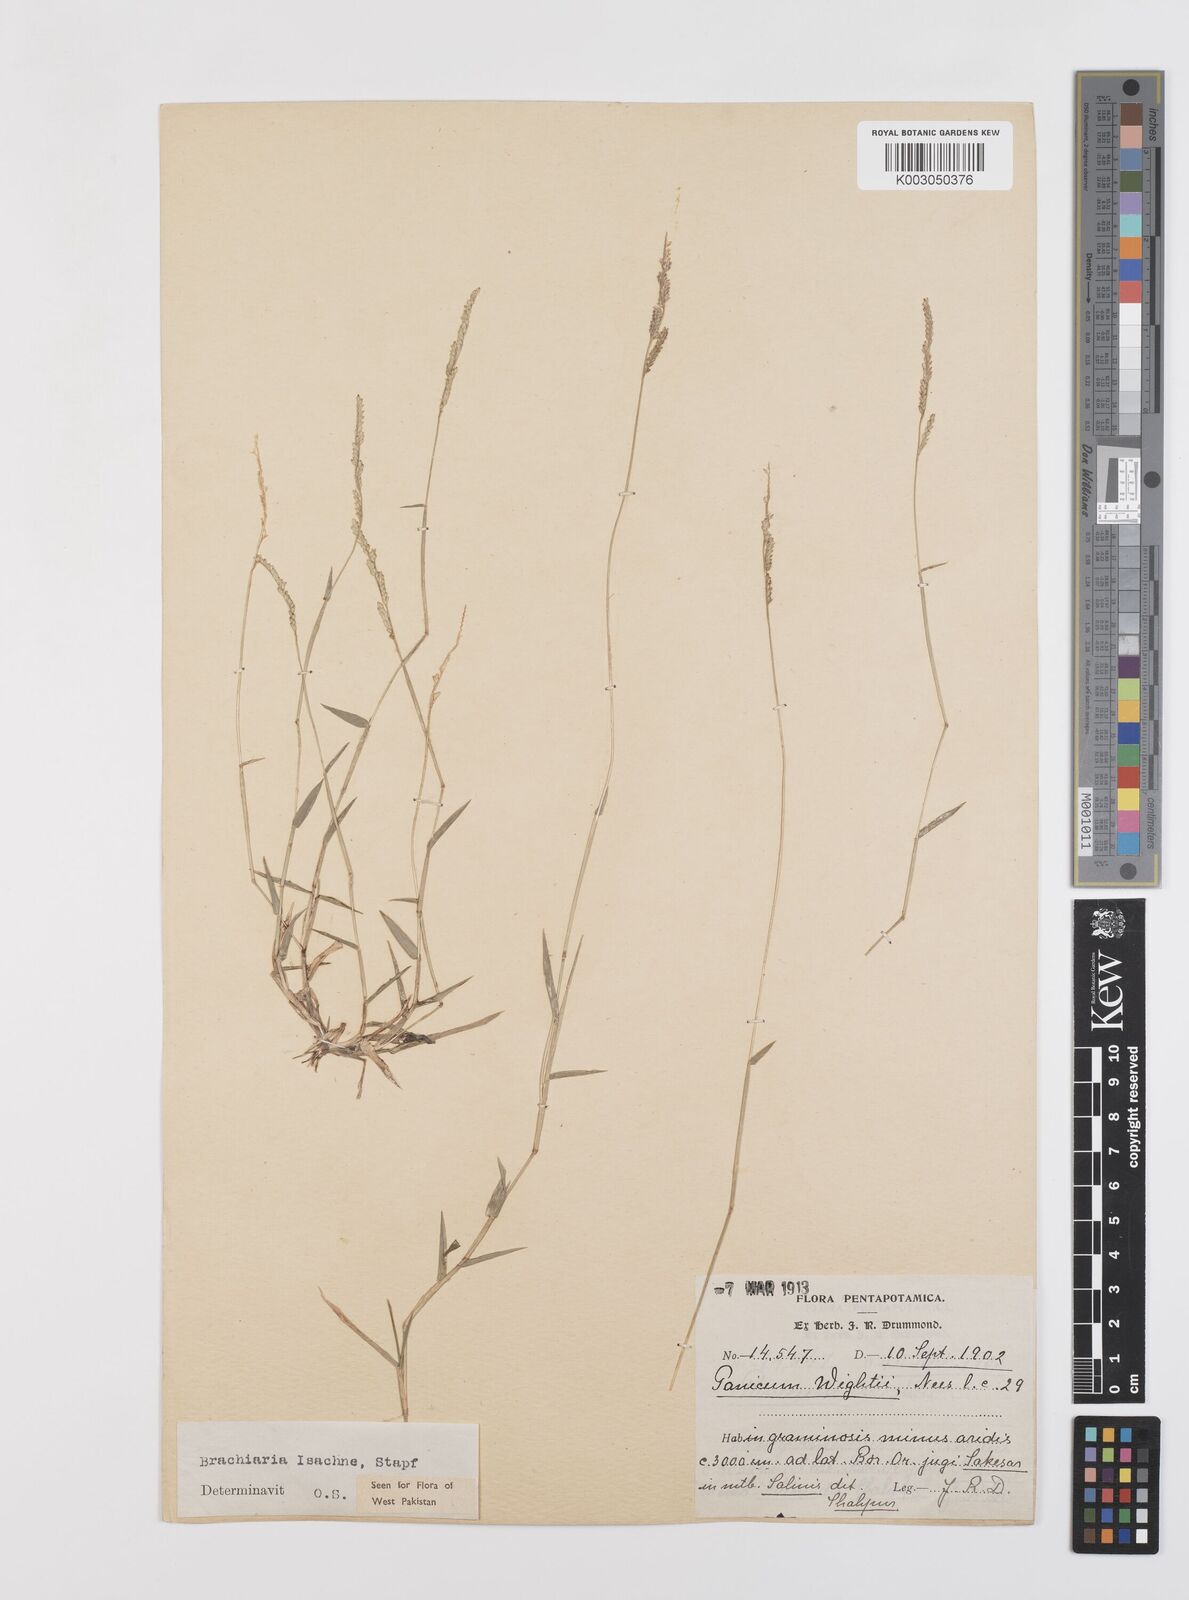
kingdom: Plantae
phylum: Tracheophyta
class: Liliopsida
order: Poales
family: Poaceae
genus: Moorochloa
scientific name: Moorochloa eruciformis
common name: Sweet signalgrass
